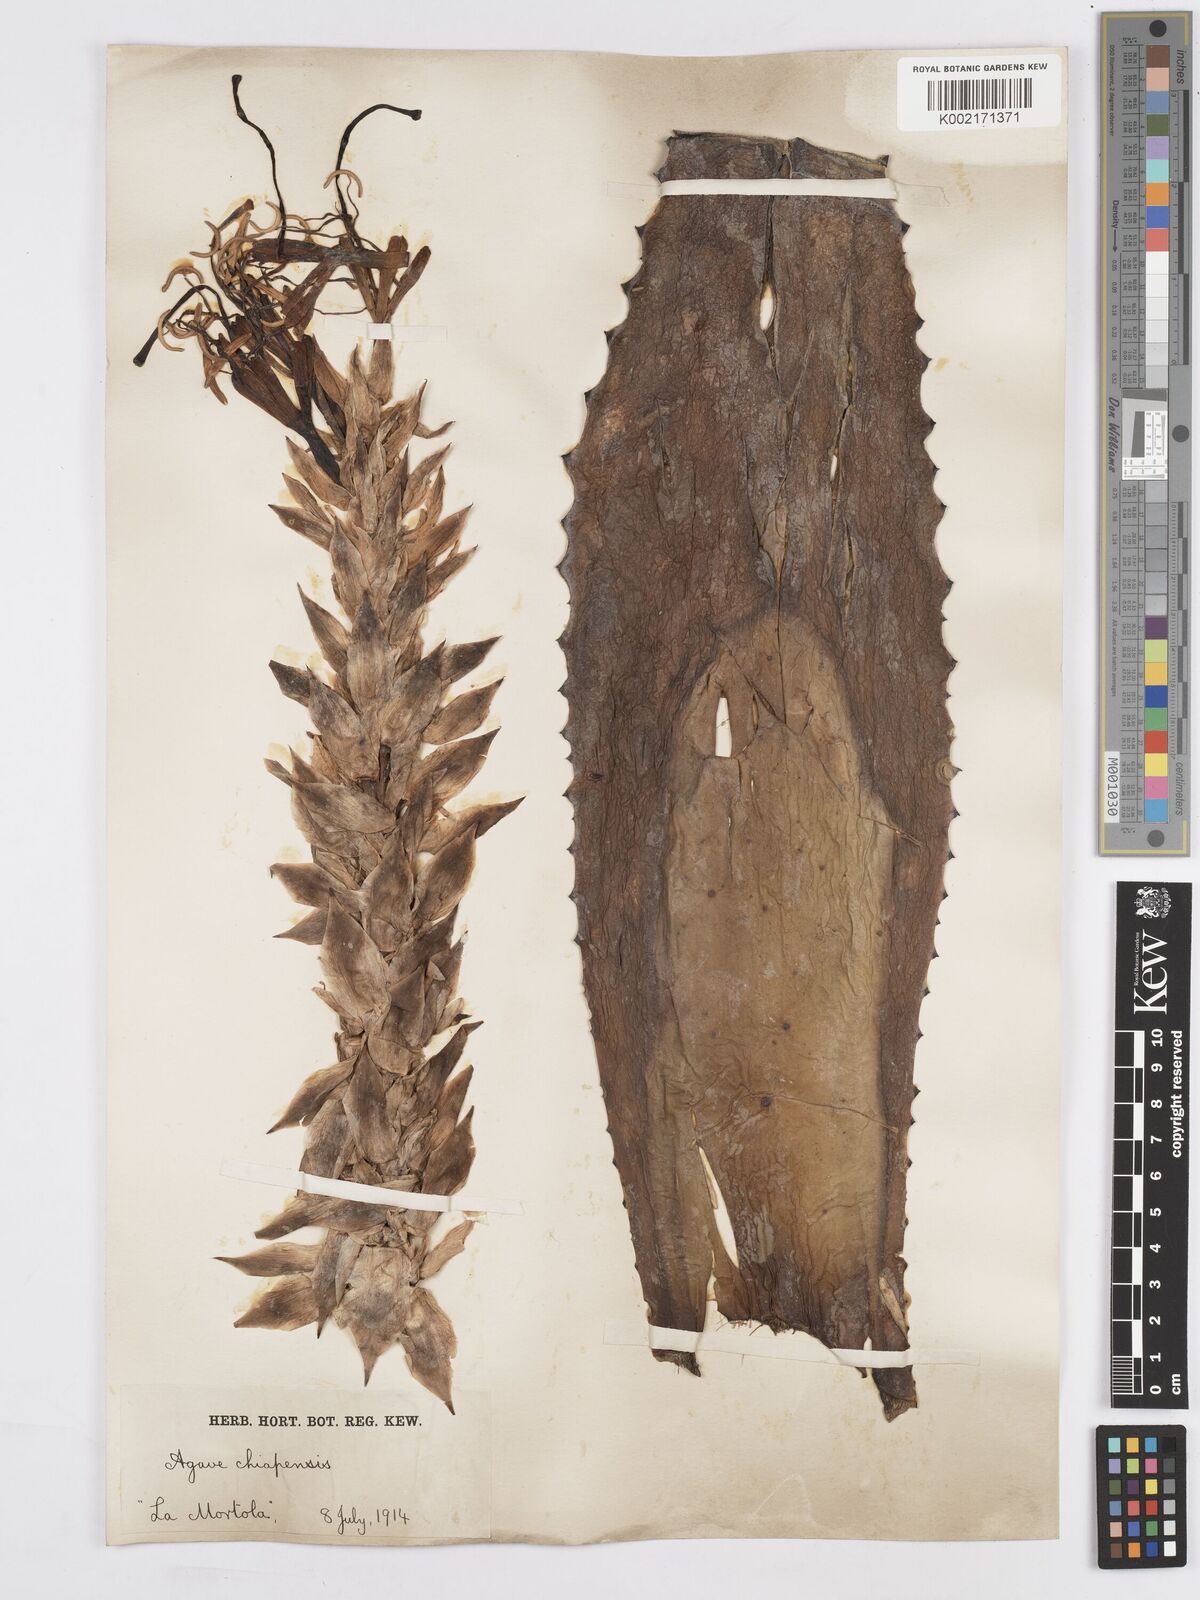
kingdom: Plantae
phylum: Tracheophyta
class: Liliopsida
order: Asparagales
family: Asparagaceae
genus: Agave
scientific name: Agave chiapensis
